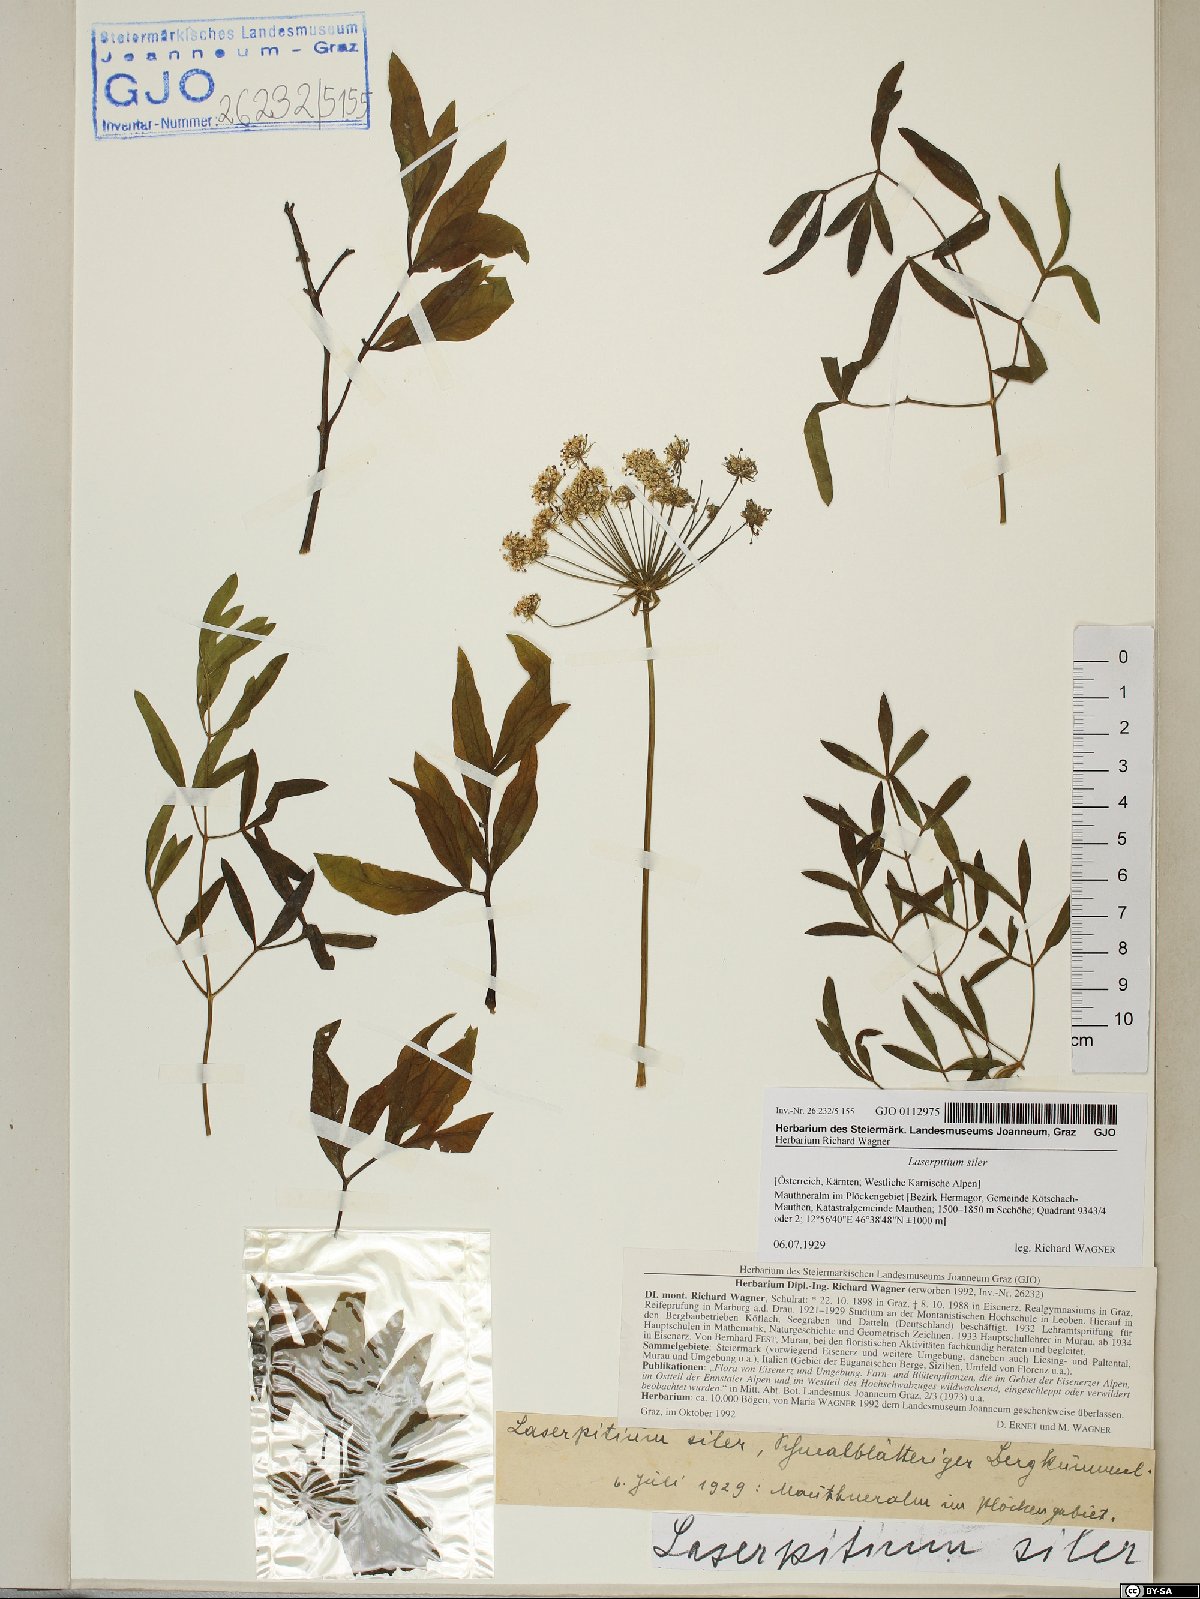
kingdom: Plantae
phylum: Tracheophyta
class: Magnoliopsida
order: Apiales
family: Apiaceae
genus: Siler
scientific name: Siler montanum
